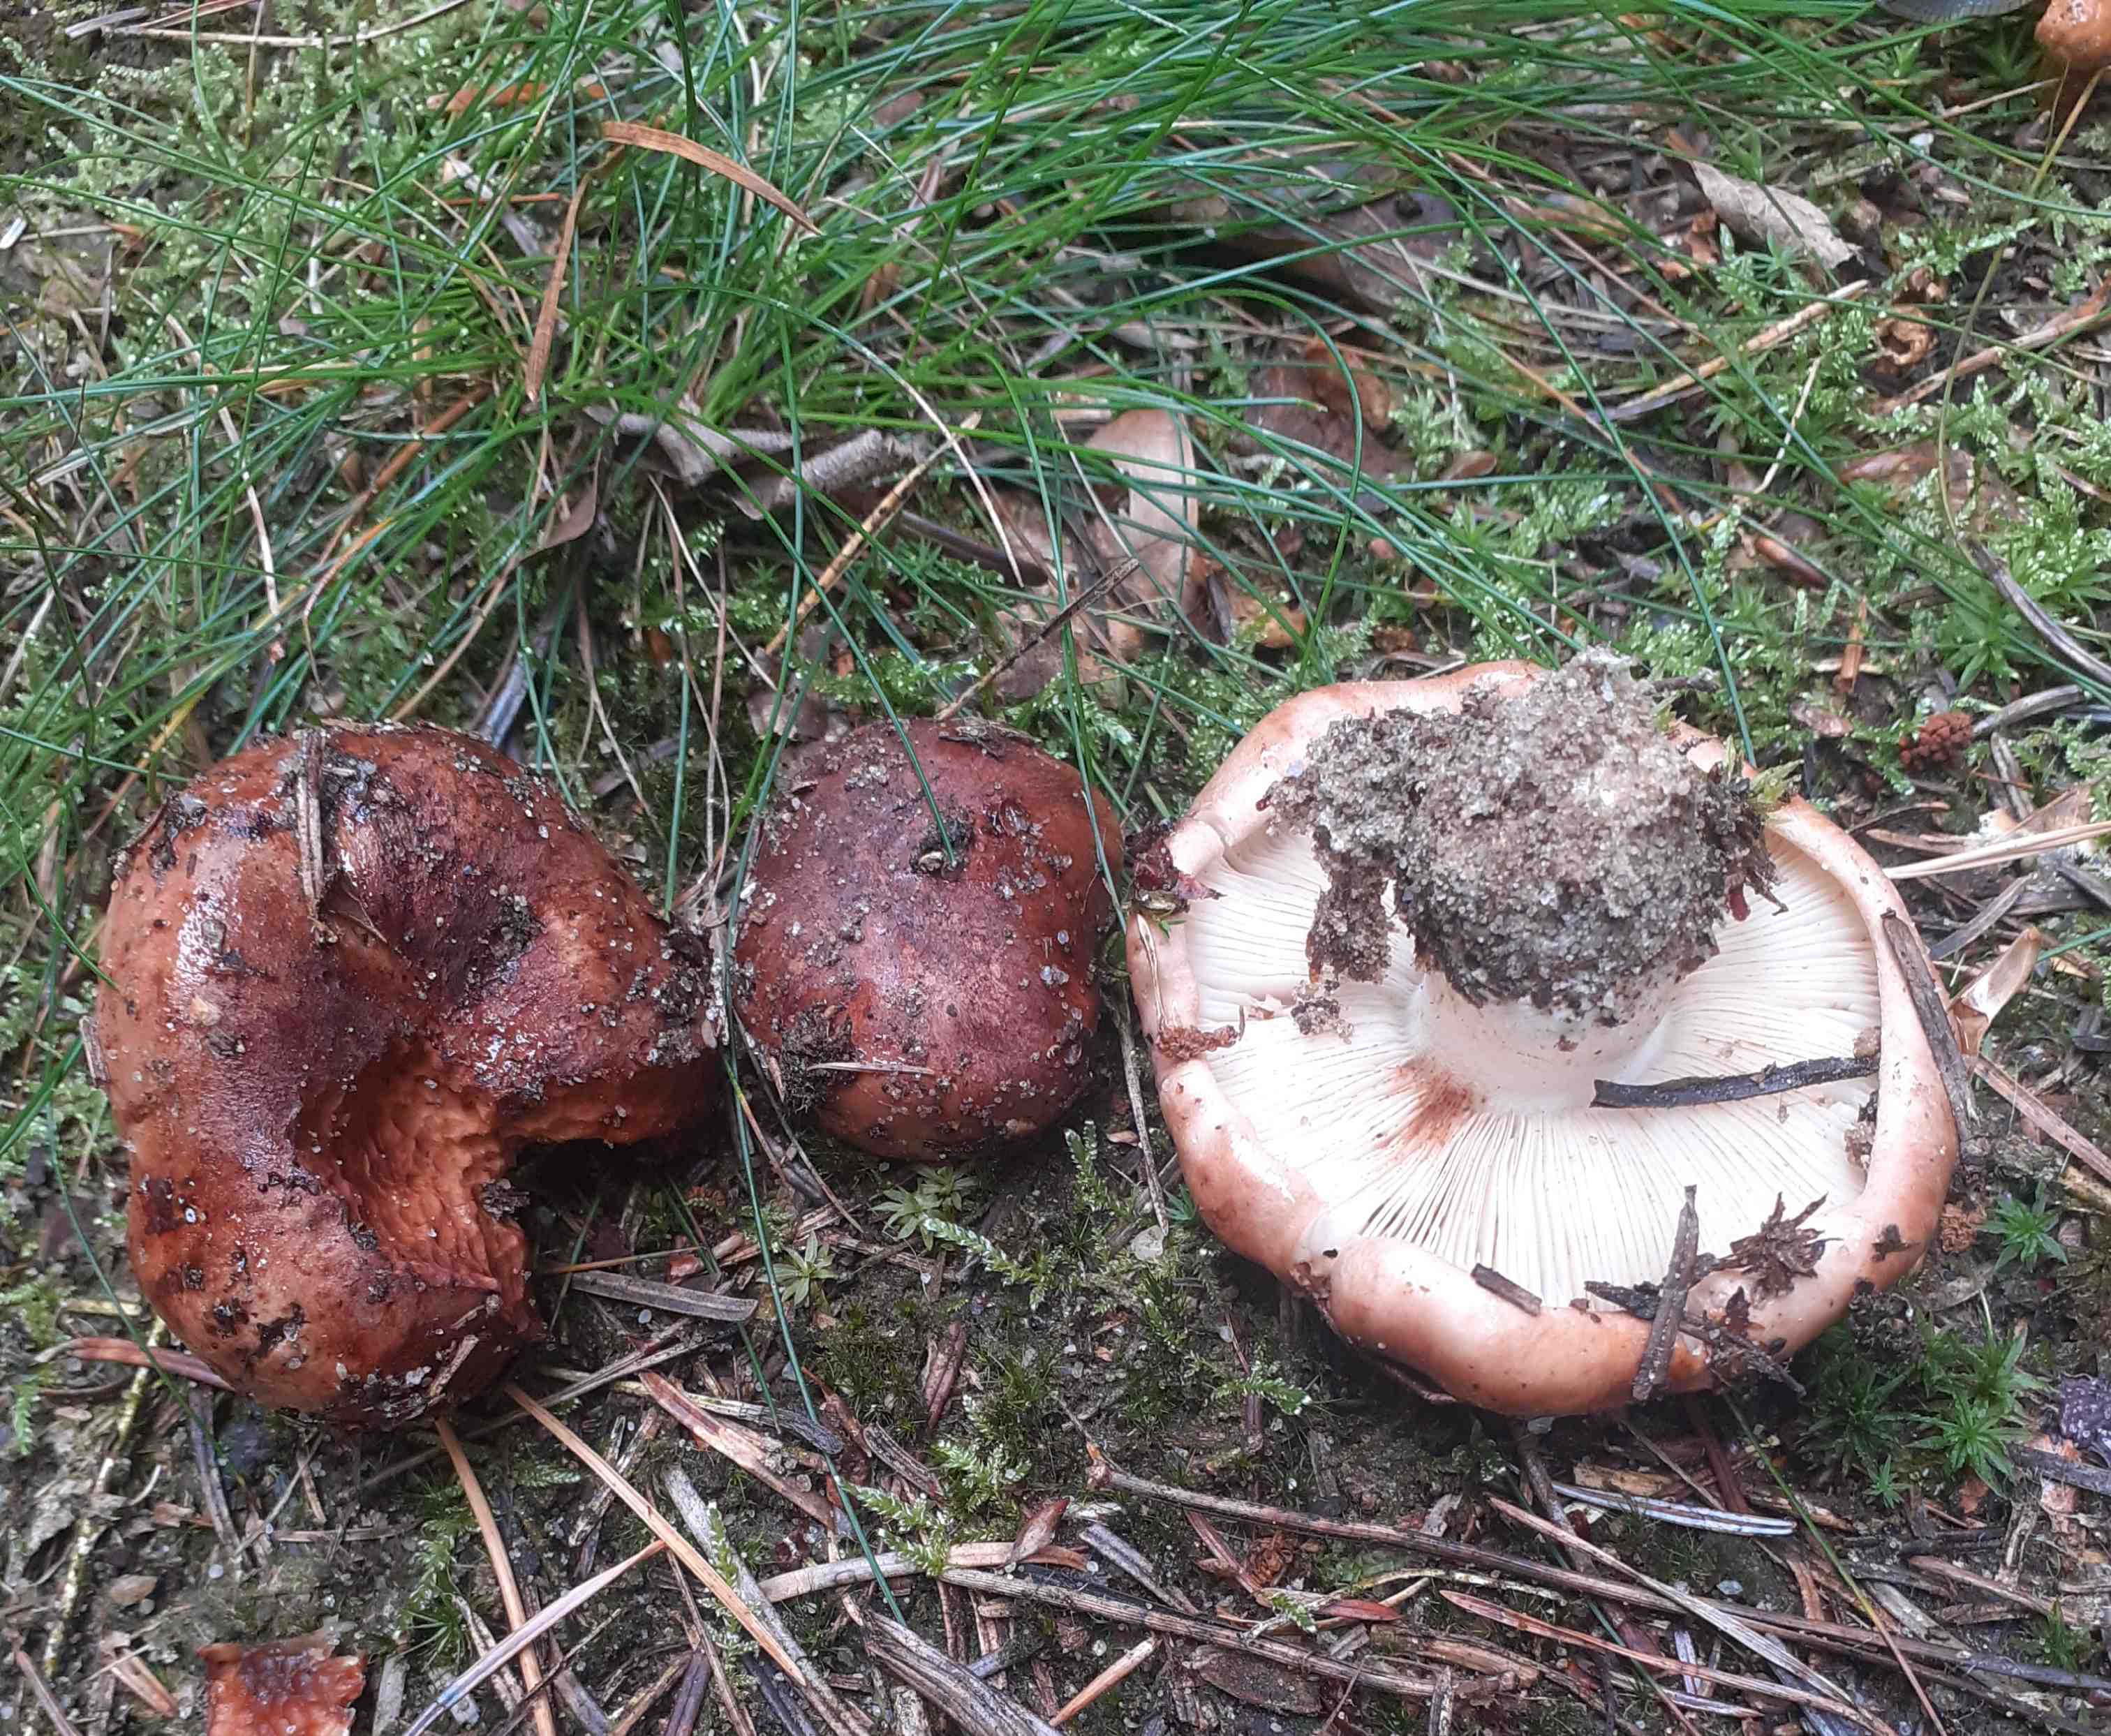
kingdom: Fungi
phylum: Basidiomycota
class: Agaricomycetes
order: Agaricales
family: Tricholomataceae
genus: Tricholoma
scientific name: Tricholoma stans
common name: stolt ridderhat
